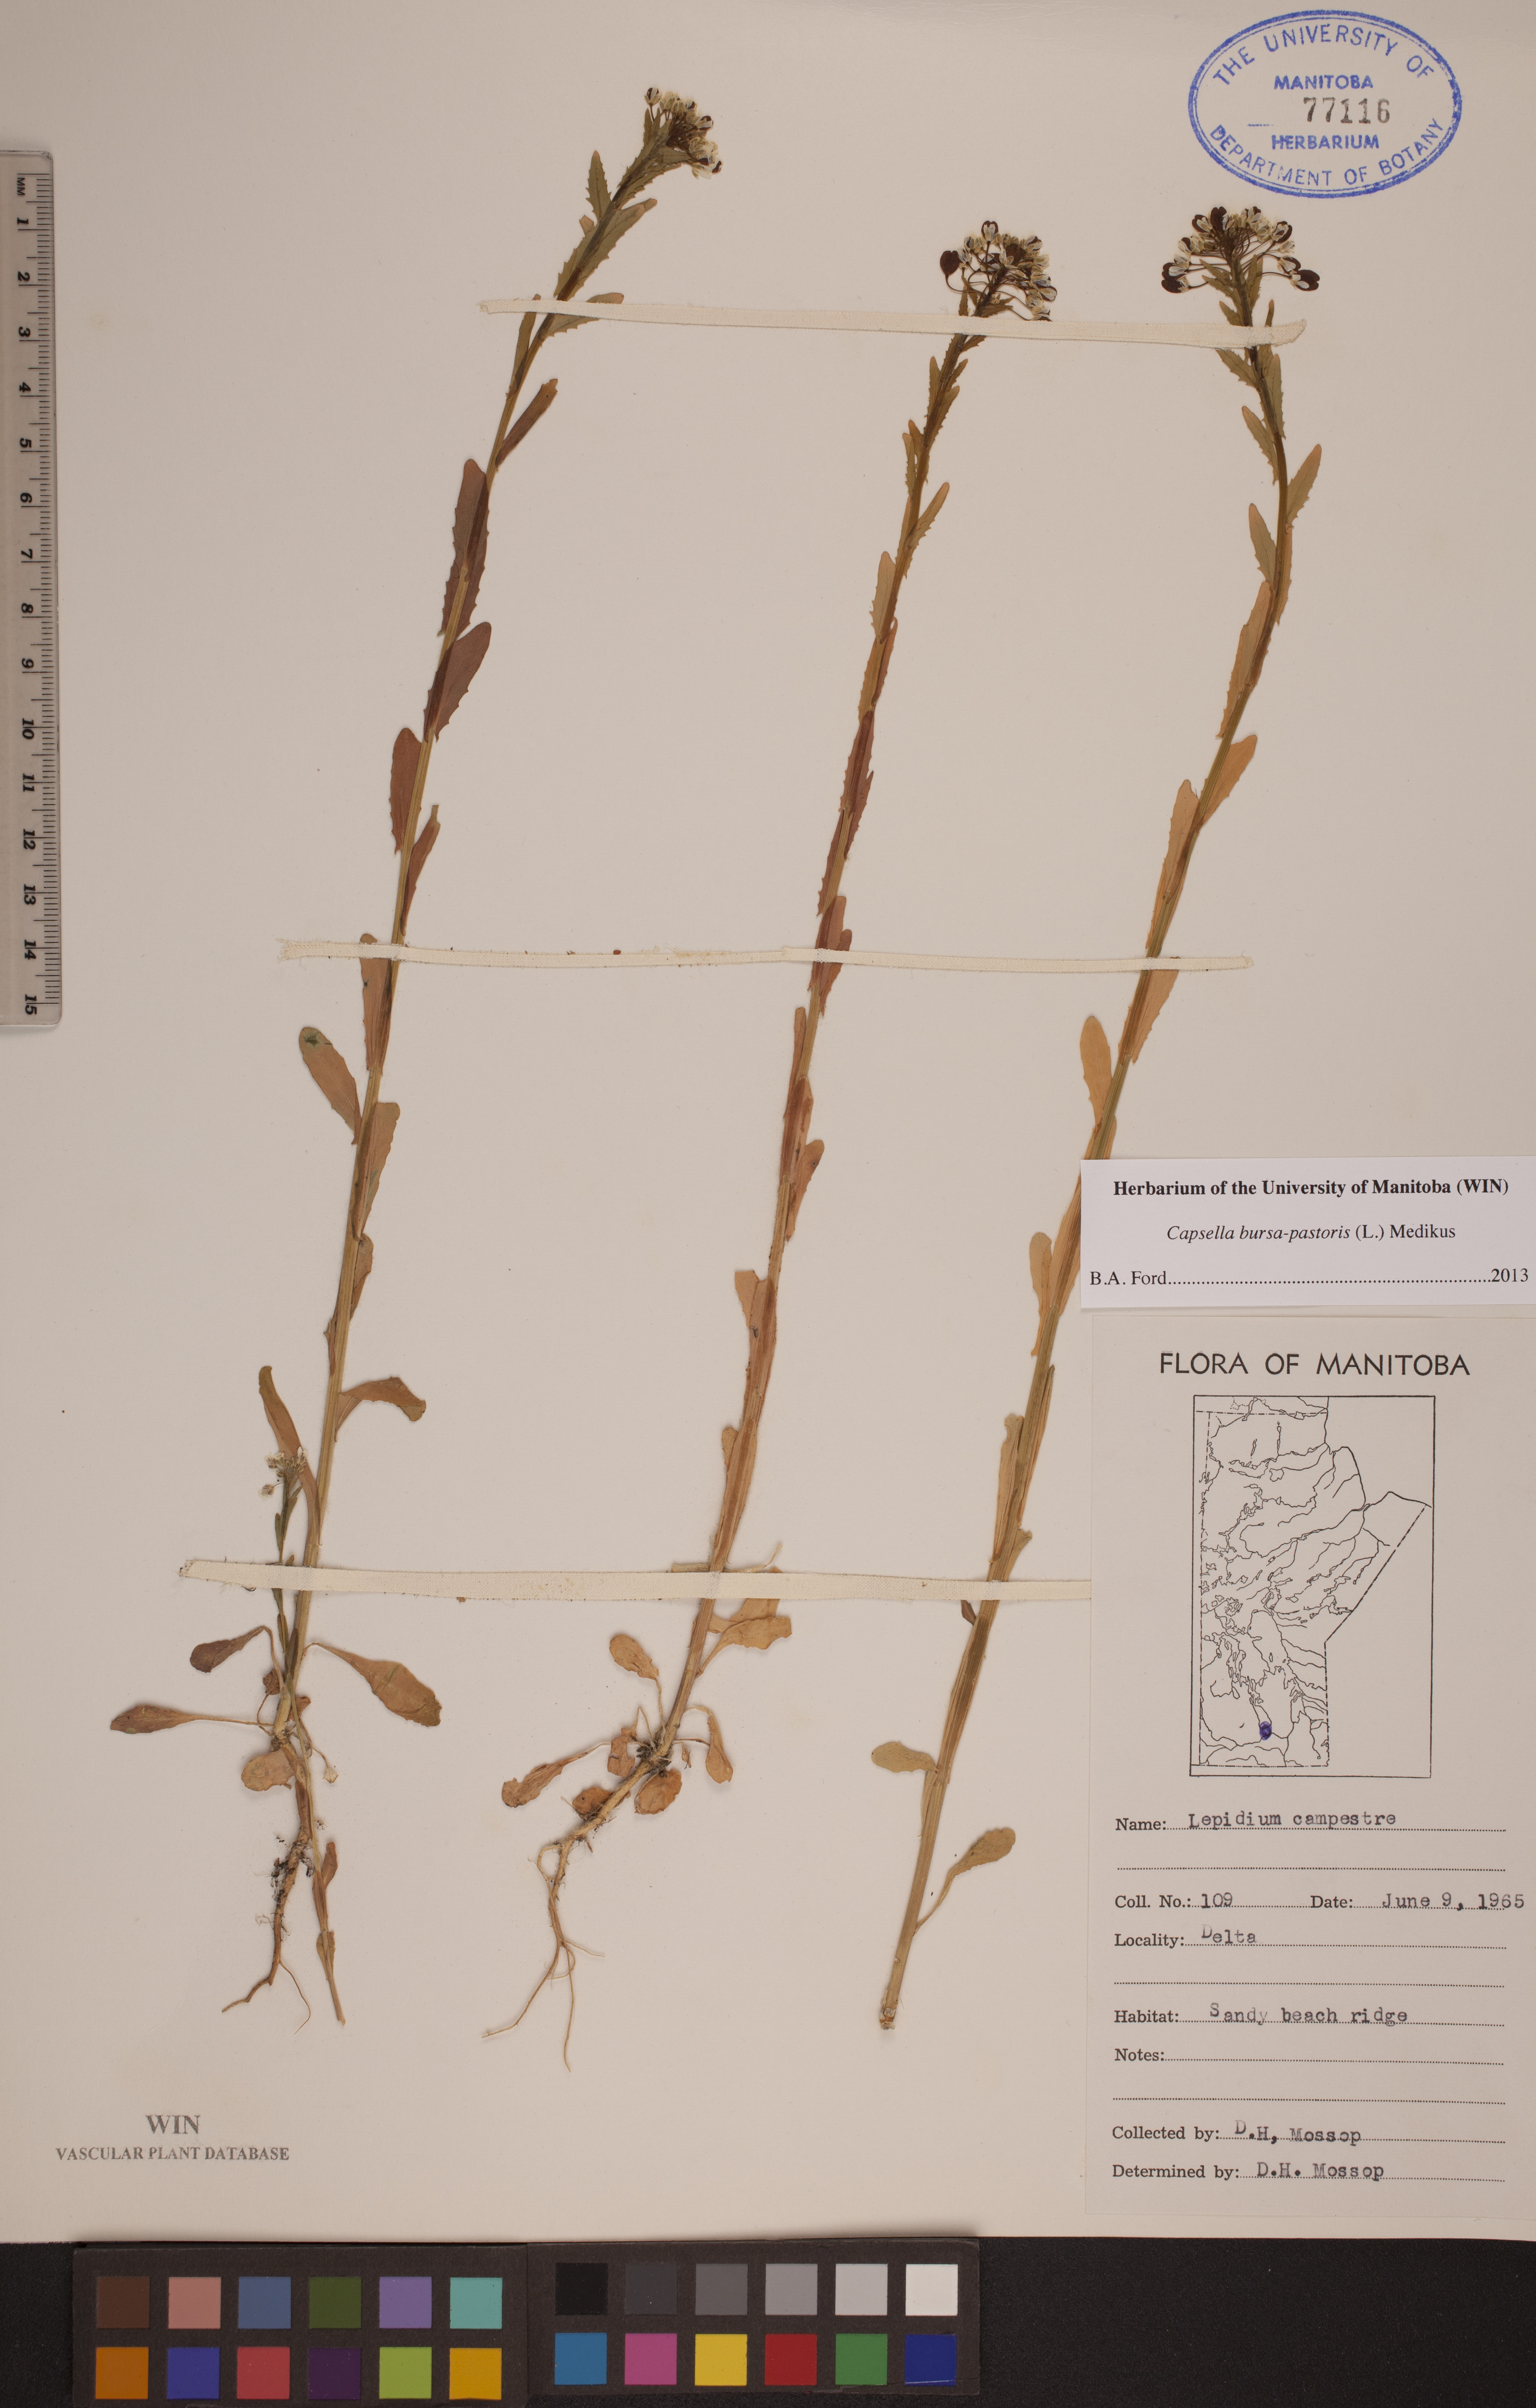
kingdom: Plantae
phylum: Tracheophyta
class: Magnoliopsida
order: Brassicales
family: Brassicaceae
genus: Capsella
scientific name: Capsella bursa-pastoris
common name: Shepherd's purse
